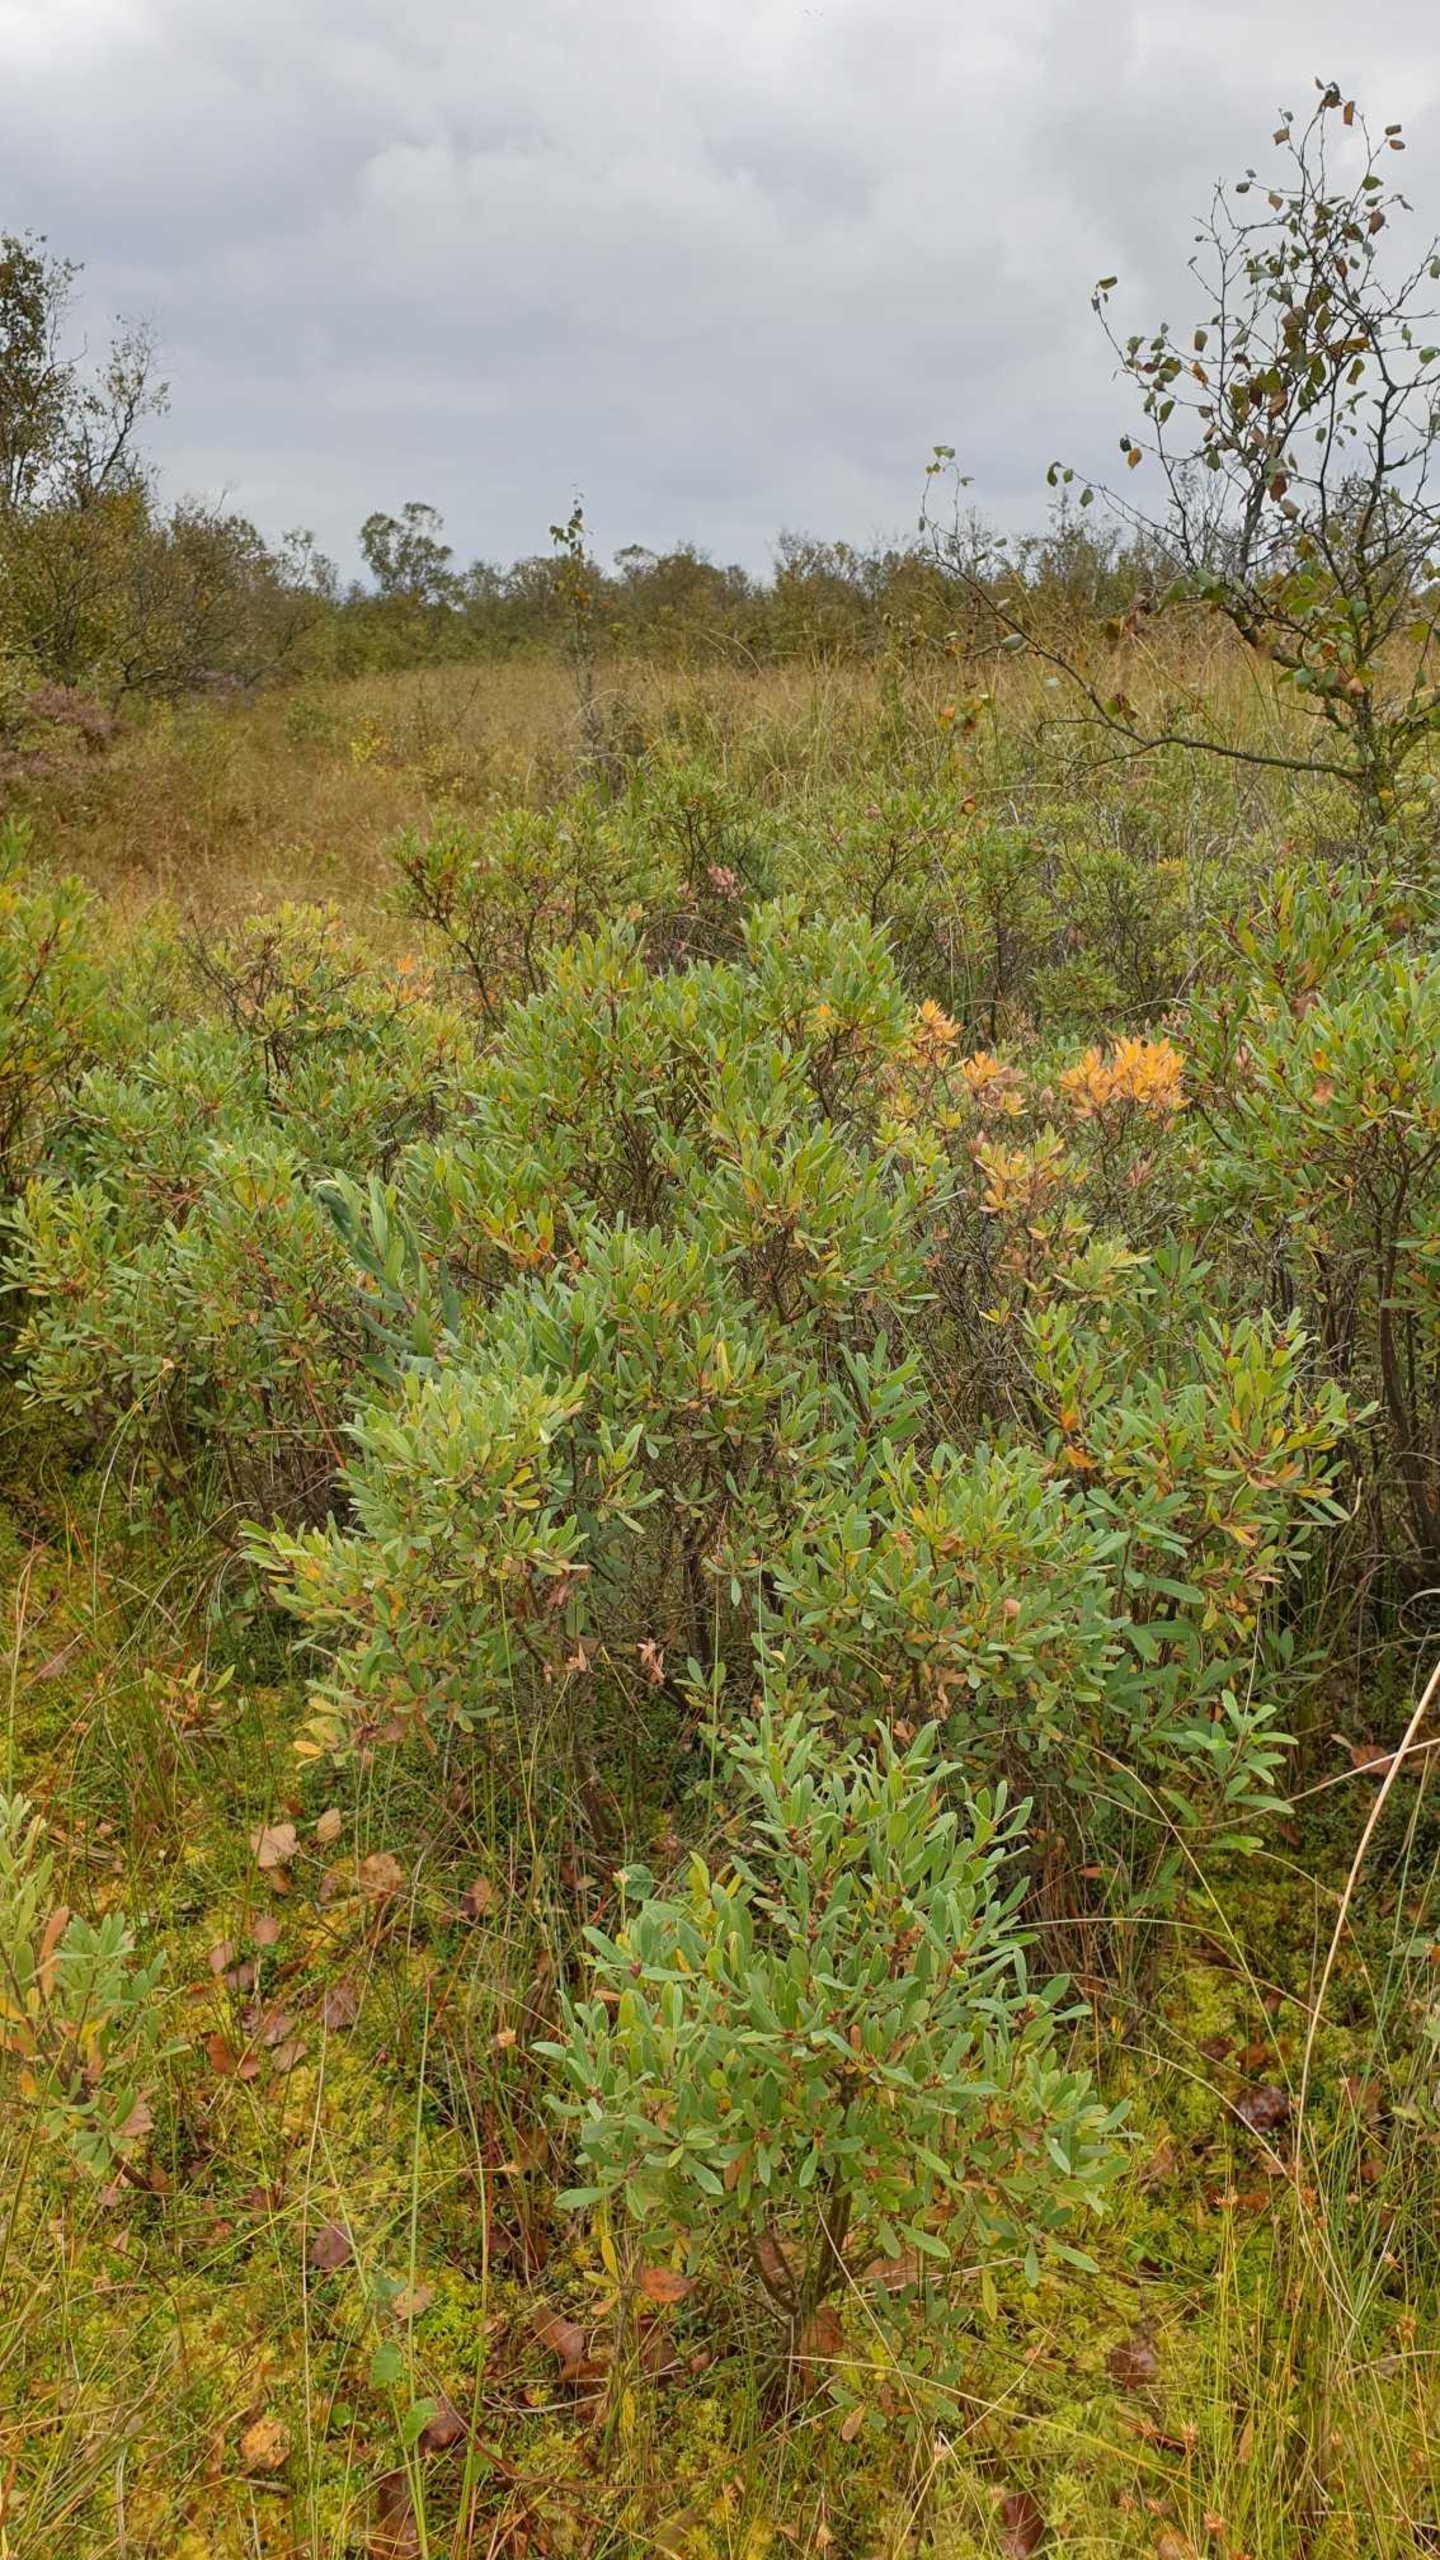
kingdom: Plantae
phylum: Tracheophyta
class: Magnoliopsida
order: Fagales
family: Myricaceae
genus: Myrica
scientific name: Myrica gale
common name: Pors
